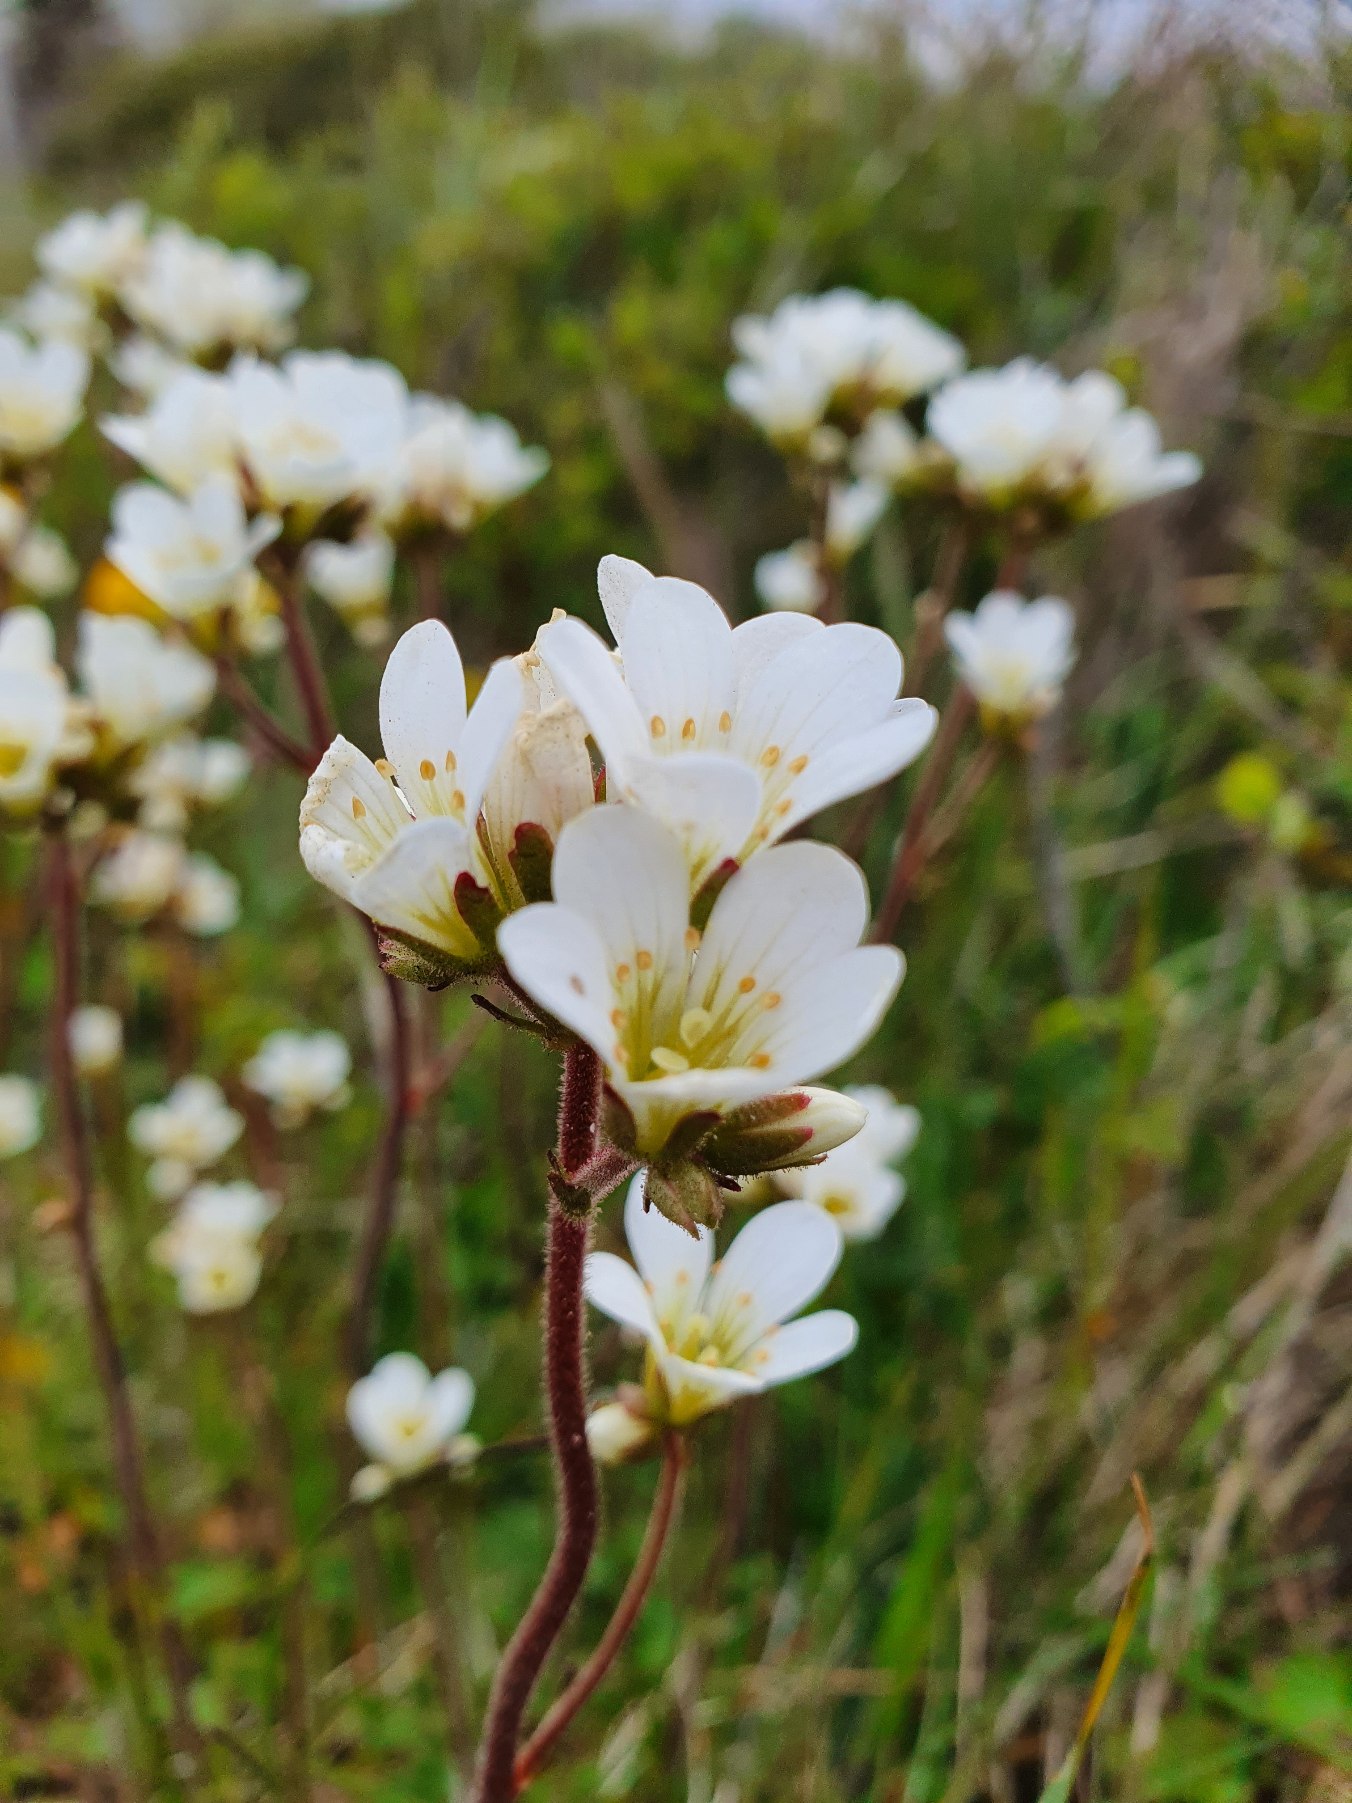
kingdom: Plantae
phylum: Tracheophyta
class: Magnoliopsida
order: Saxifragales
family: Saxifragaceae
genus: Saxifraga
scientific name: Saxifraga granulata
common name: Kornet stenbræk
